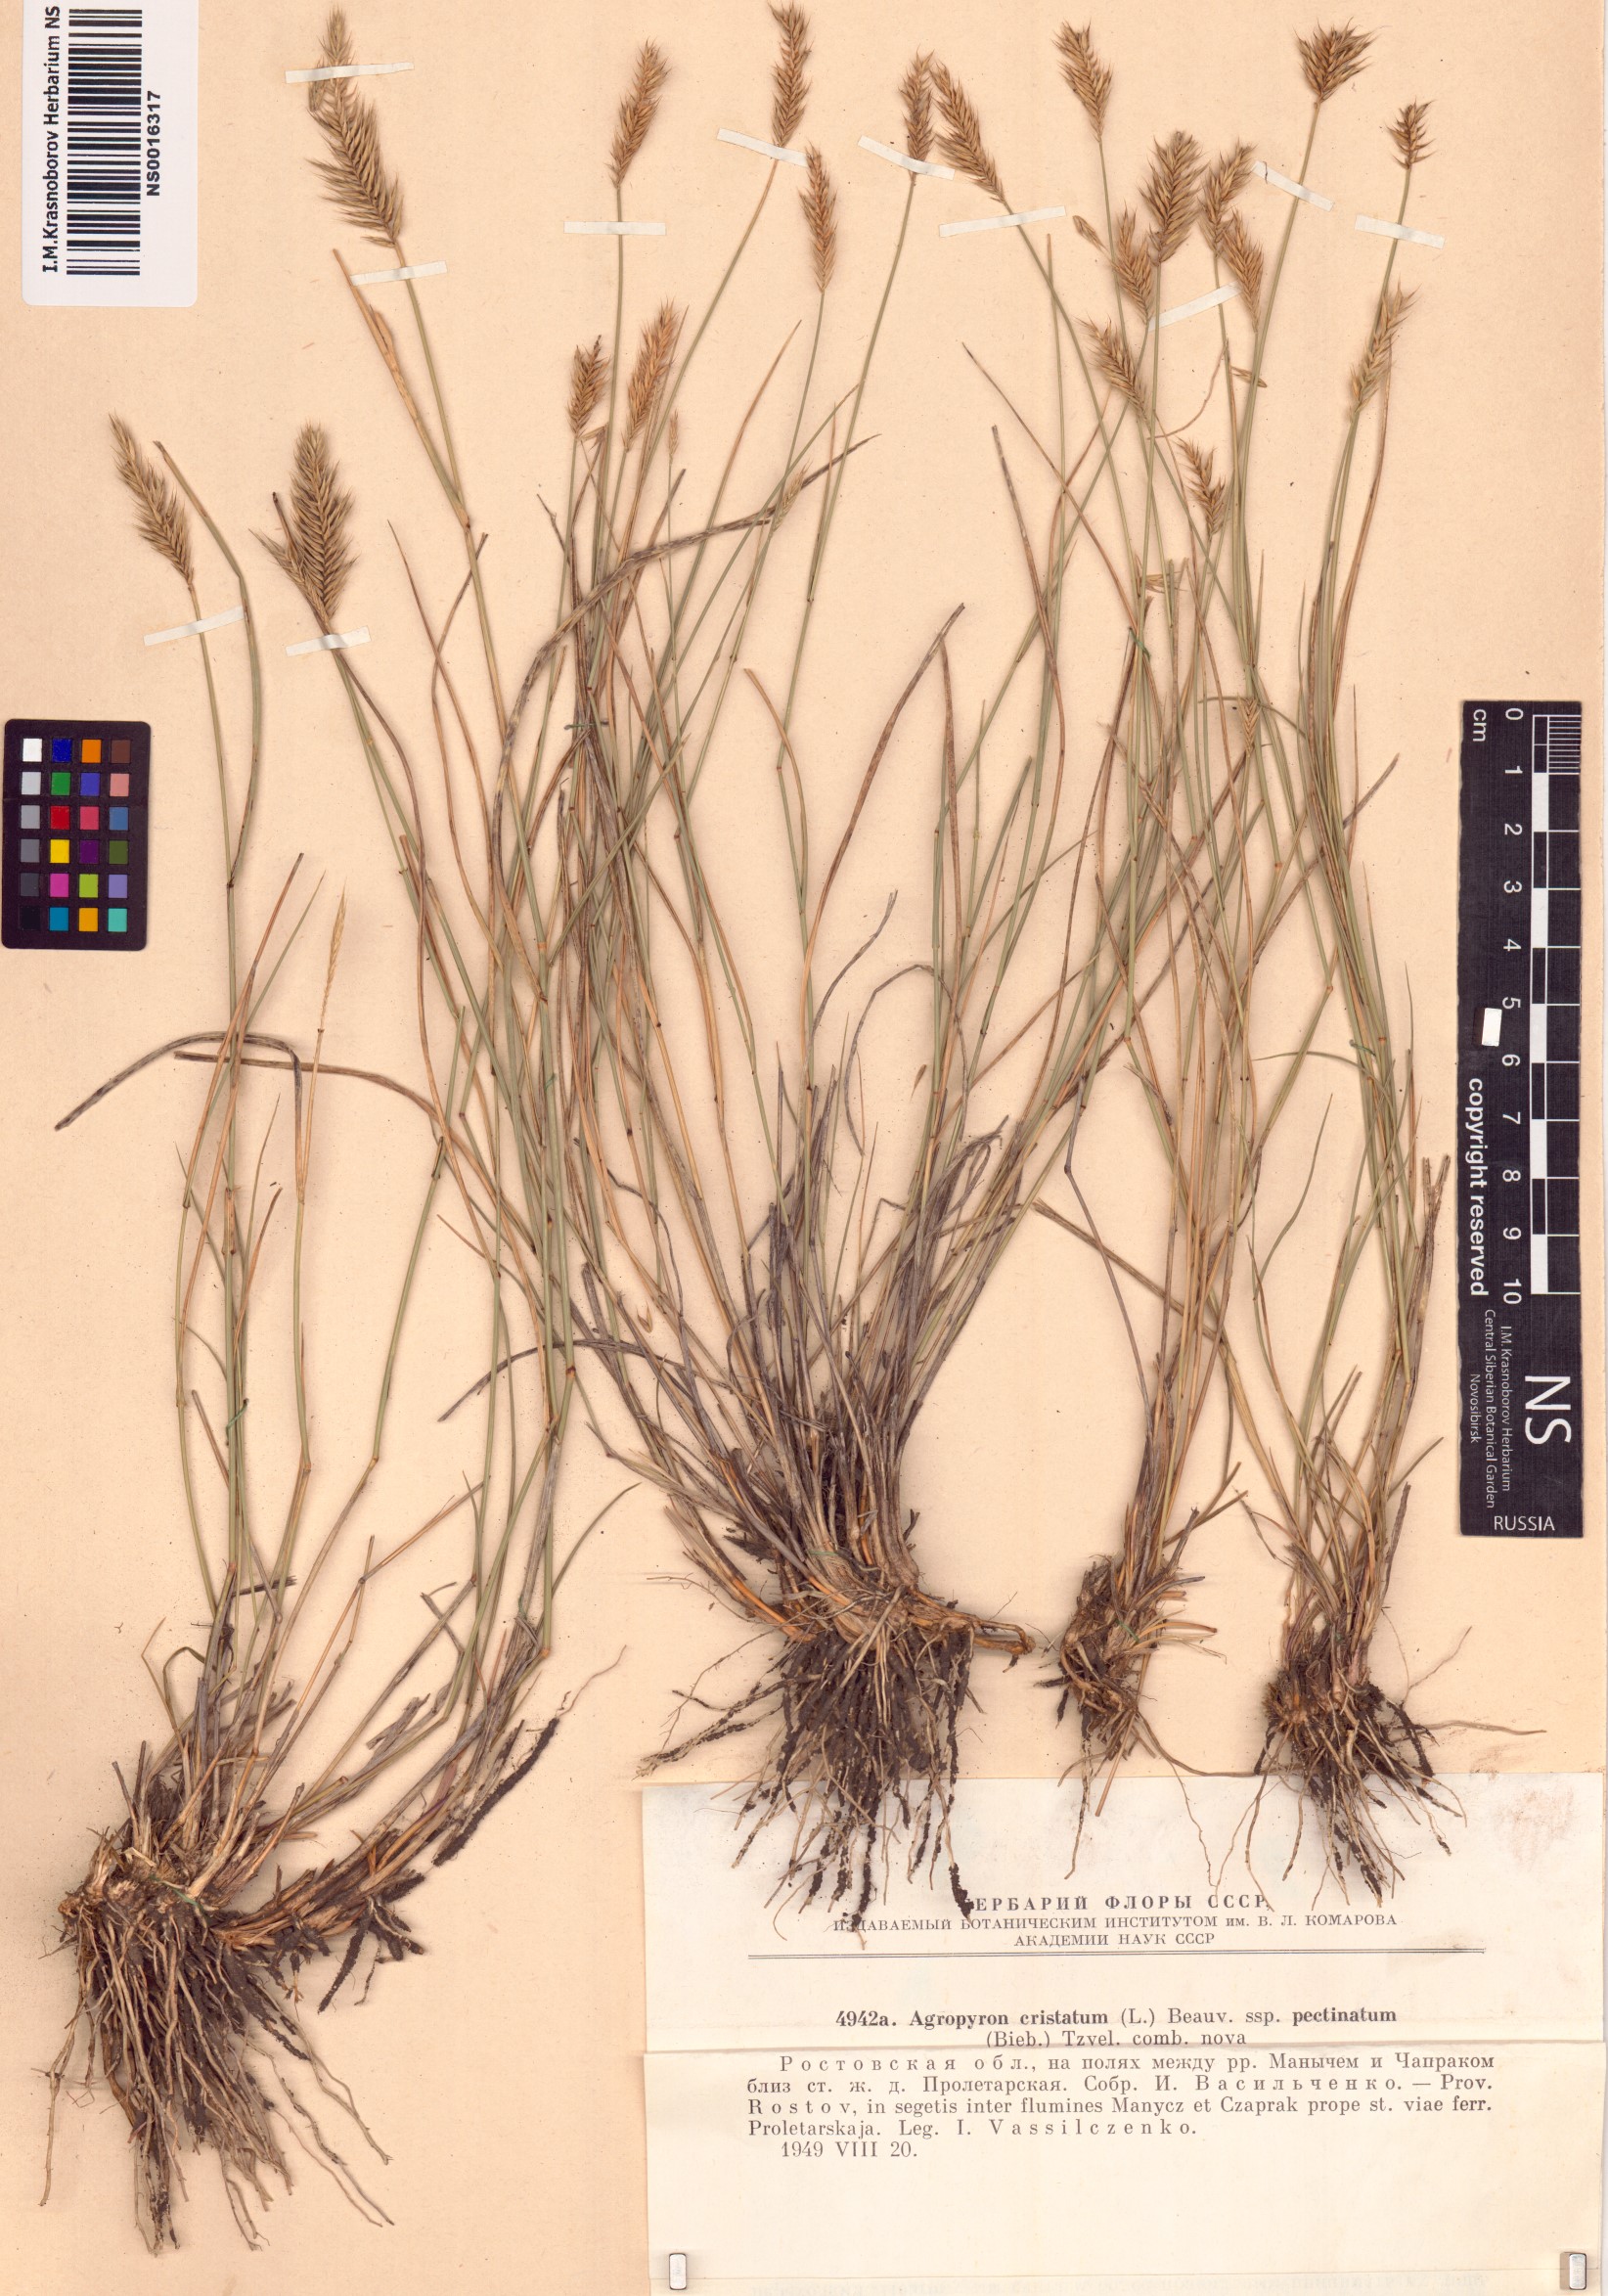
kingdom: Plantae
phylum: Tracheophyta
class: Liliopsida
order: Poales
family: Poaceae
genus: Agropyron
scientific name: Agropyron cristatum
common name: Crested wheatgrass
